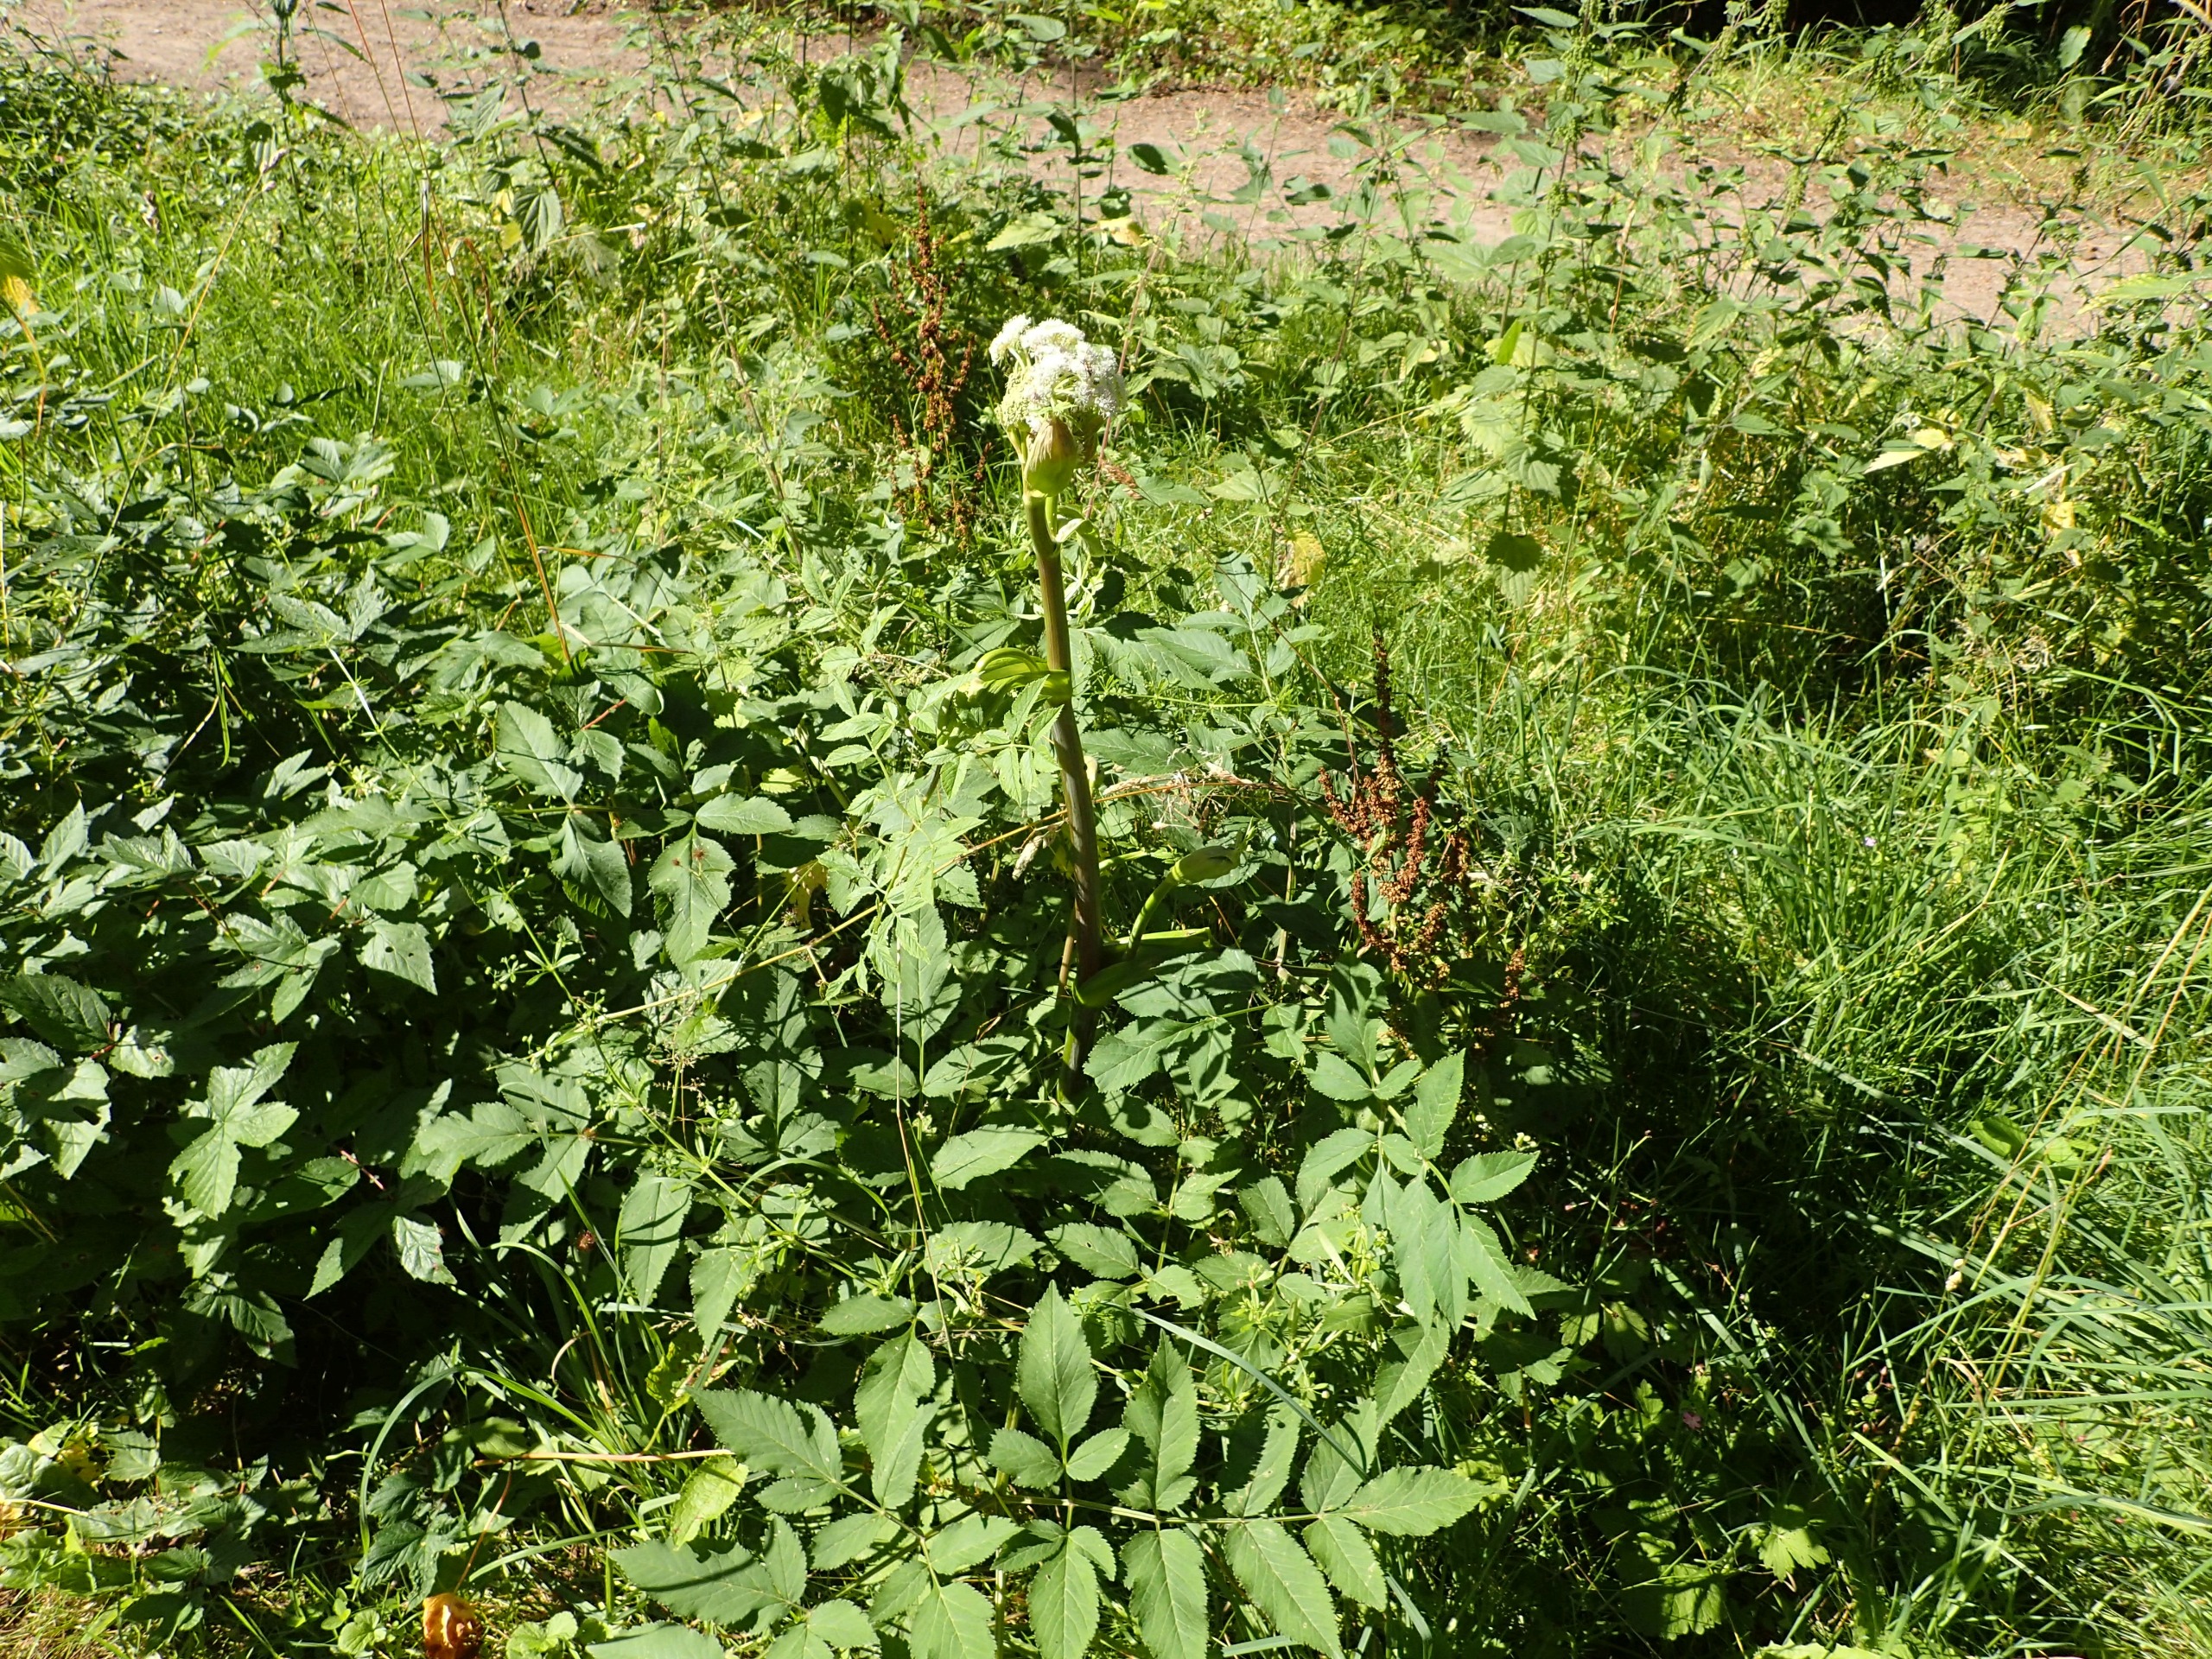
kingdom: Plantae
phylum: Tracheophyta
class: Magnoliopsida
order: Apiales
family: Apiaceae
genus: Angelica
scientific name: Angelica sylvestris
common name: Angelik
